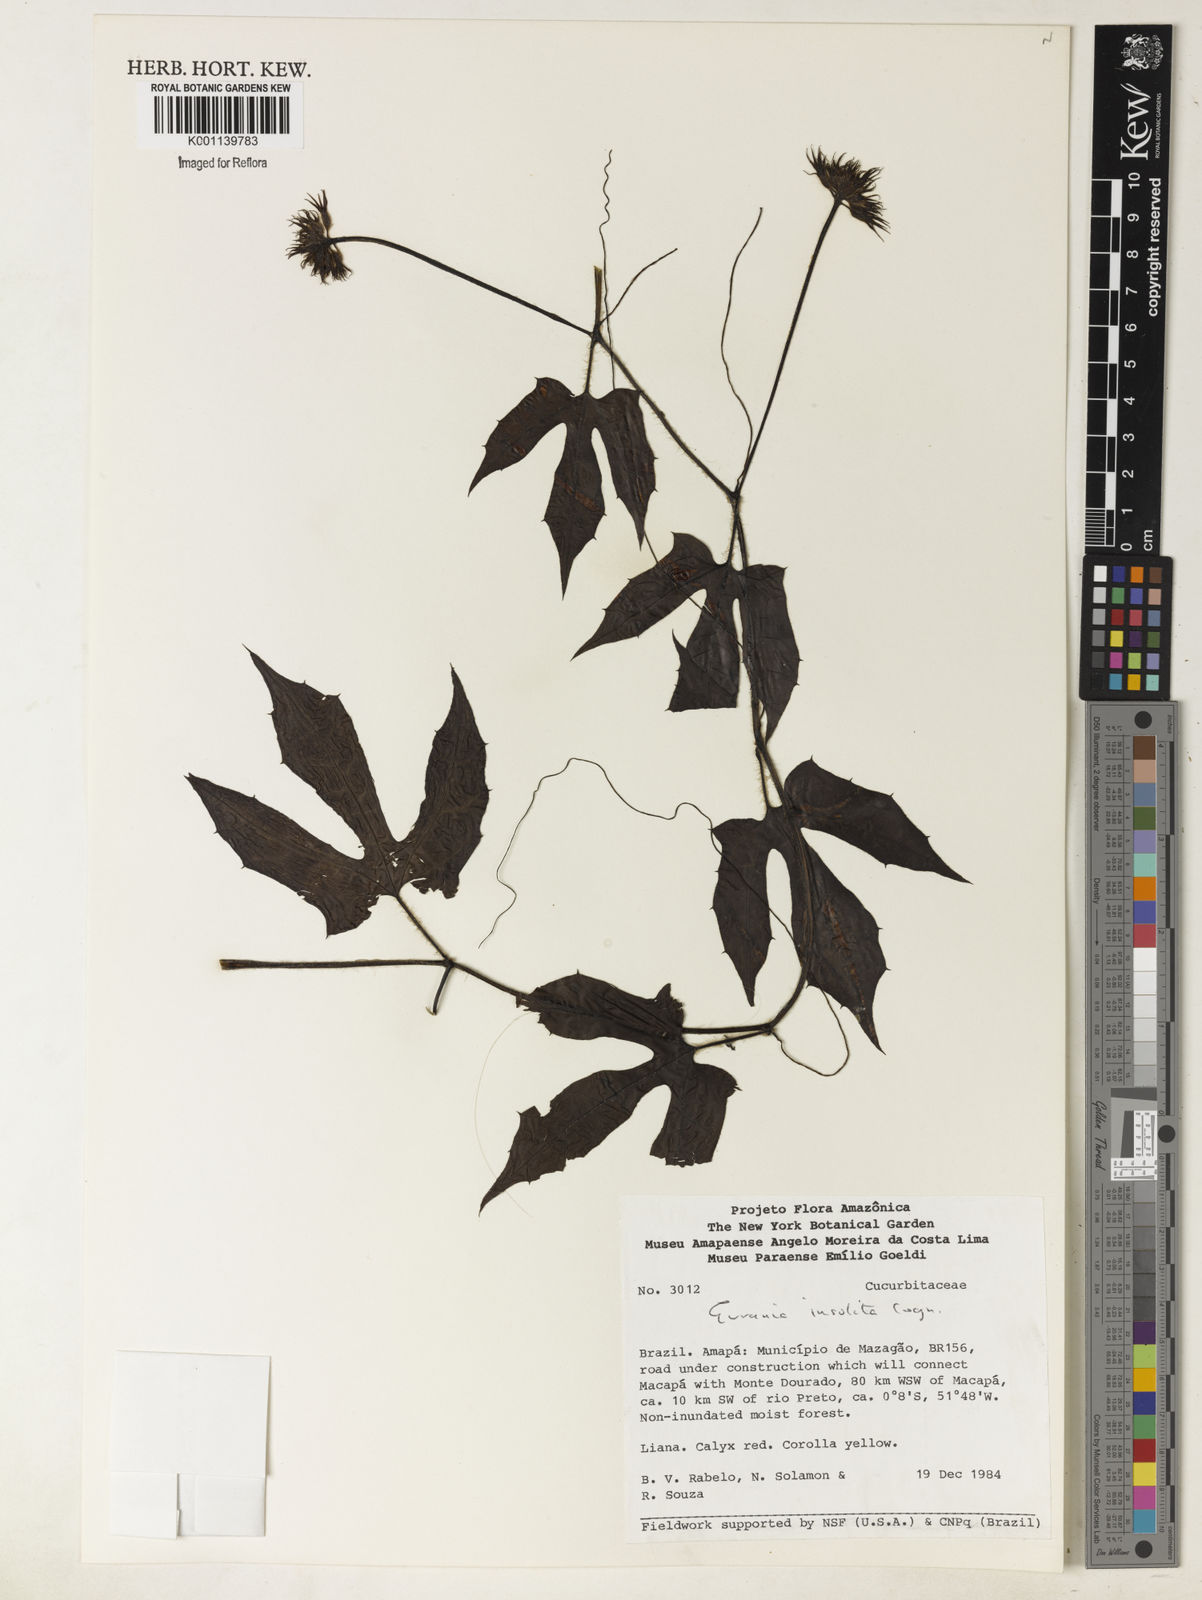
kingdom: Plantae
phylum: Tracheophyta
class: Magnoliopsida
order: Cucurbitales
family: Cucurbitaceae
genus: Gurania
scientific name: Gurania sinuata
